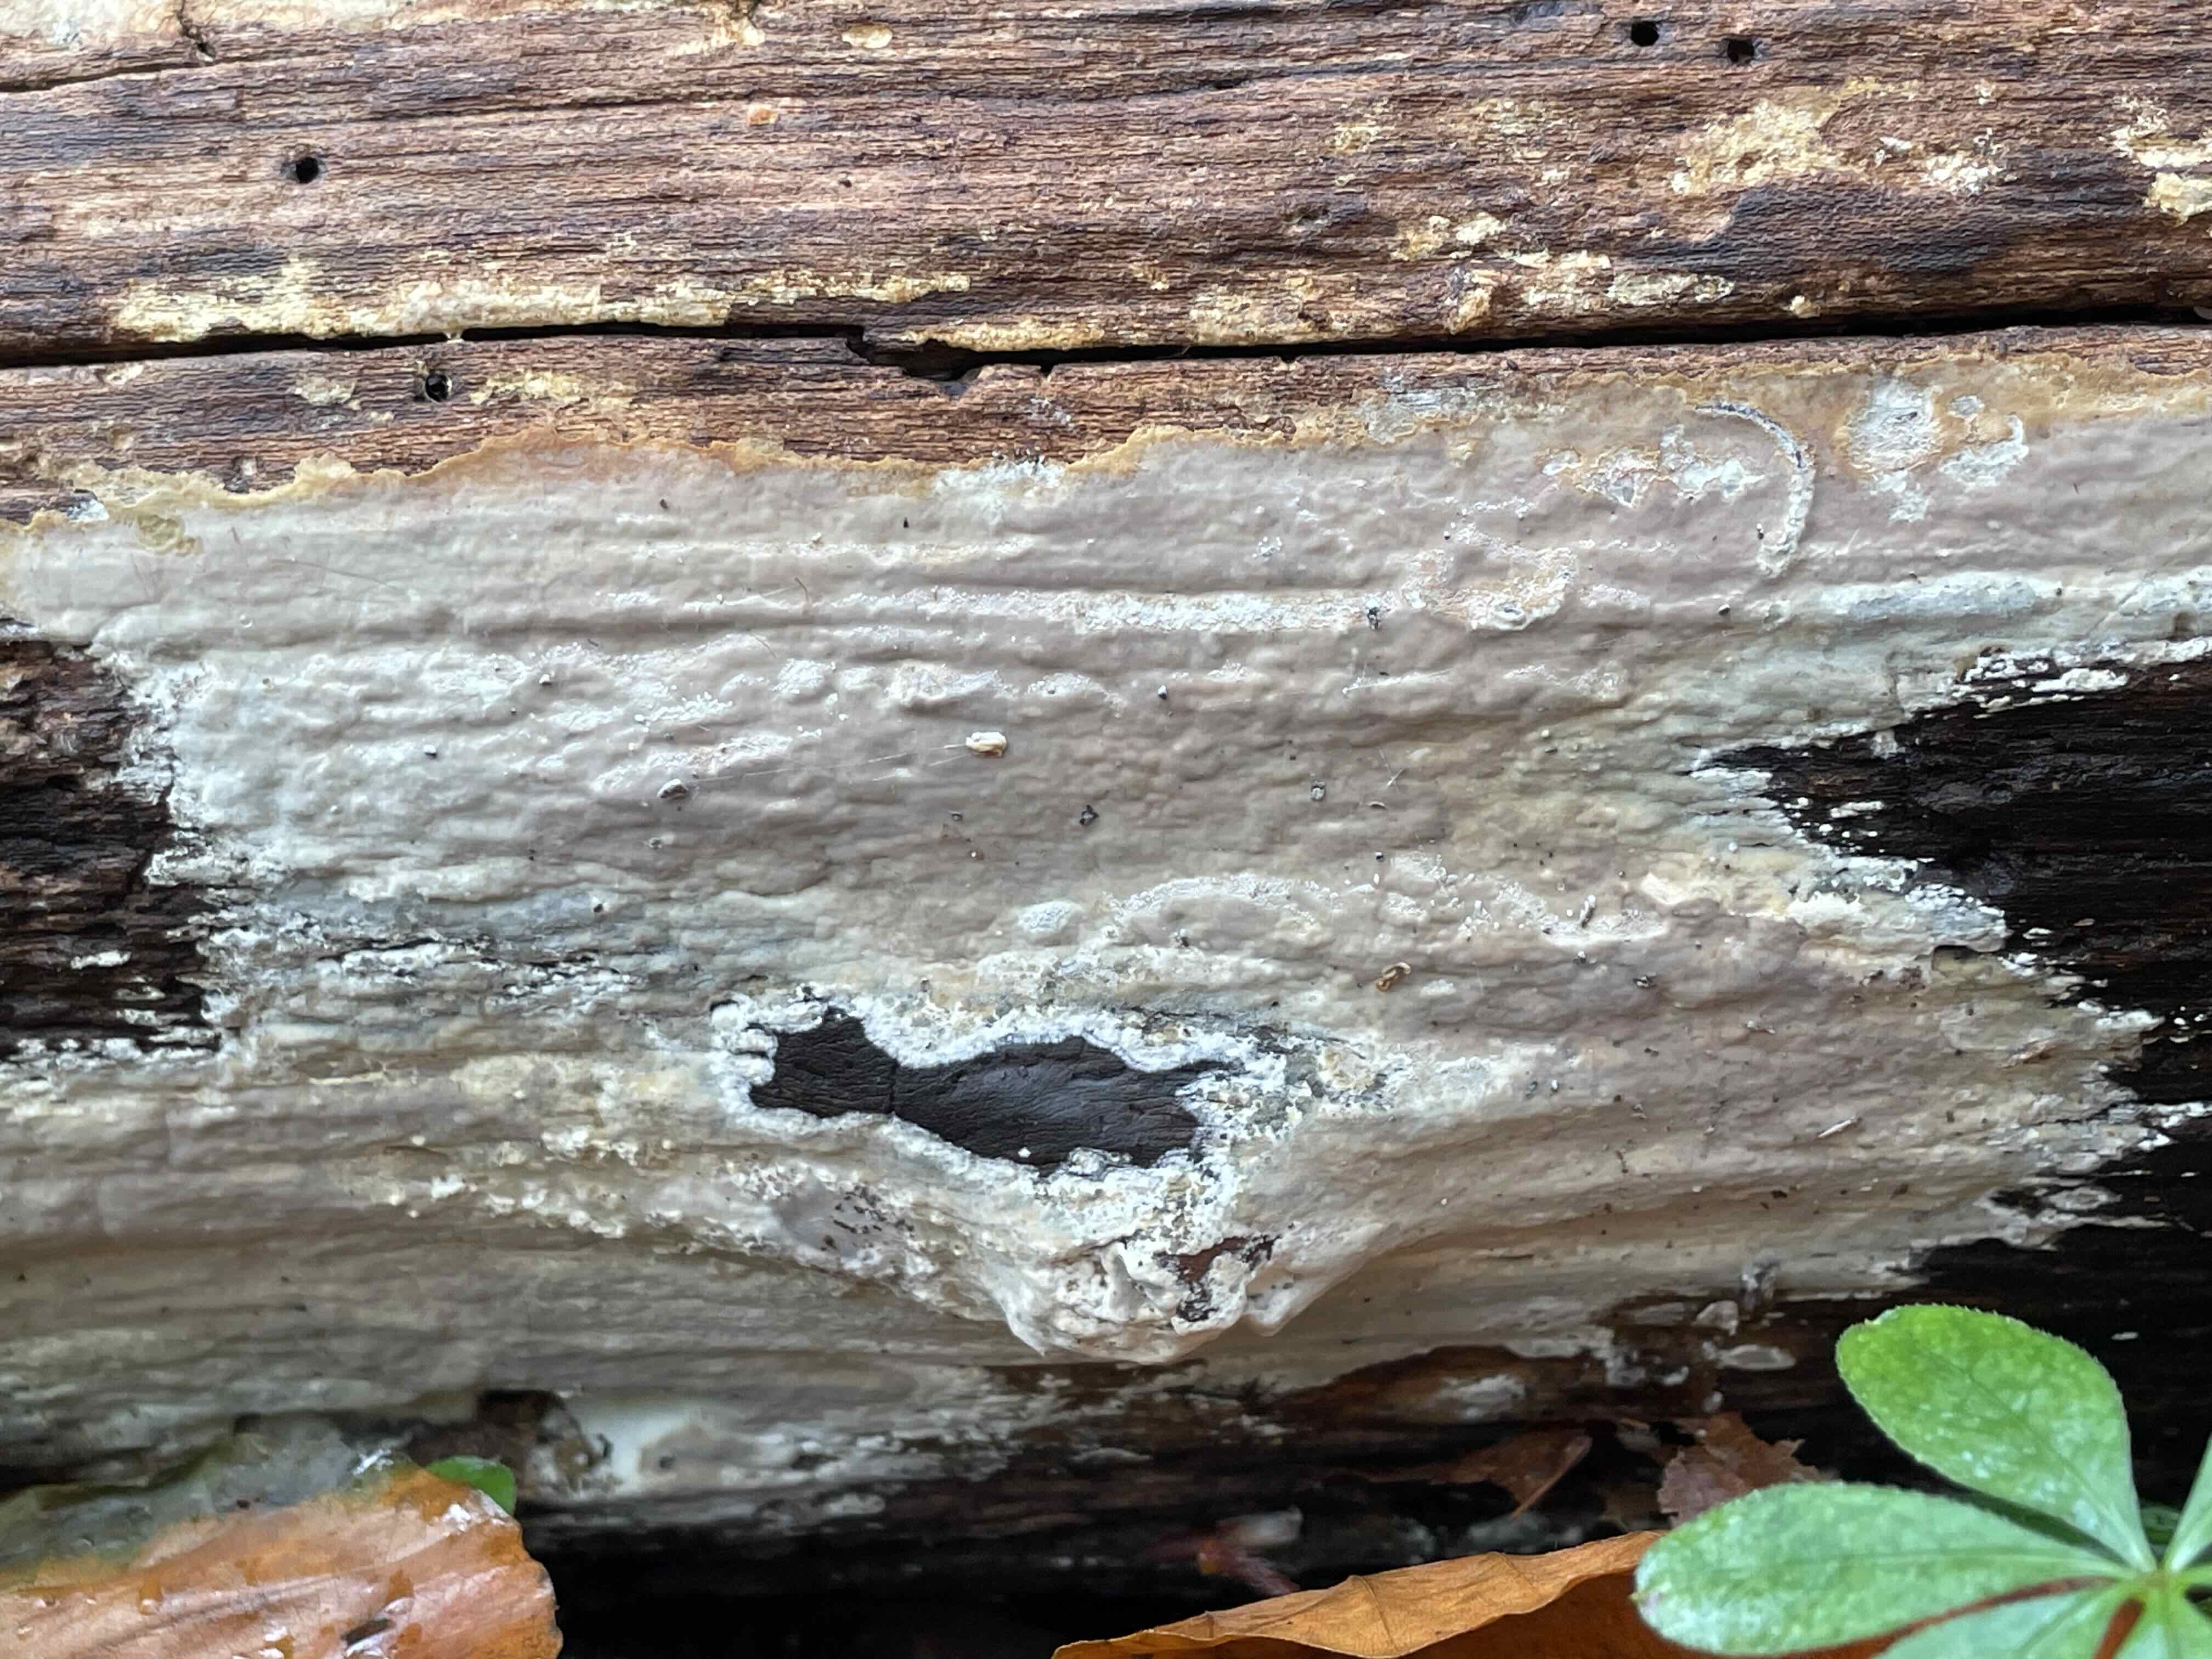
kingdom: Fungi
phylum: Basidiomycota
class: Agaricomycetes
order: Russulales
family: Peniophoraceae
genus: Scytinostroma
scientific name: Scytinostroma hemidichophyticum
